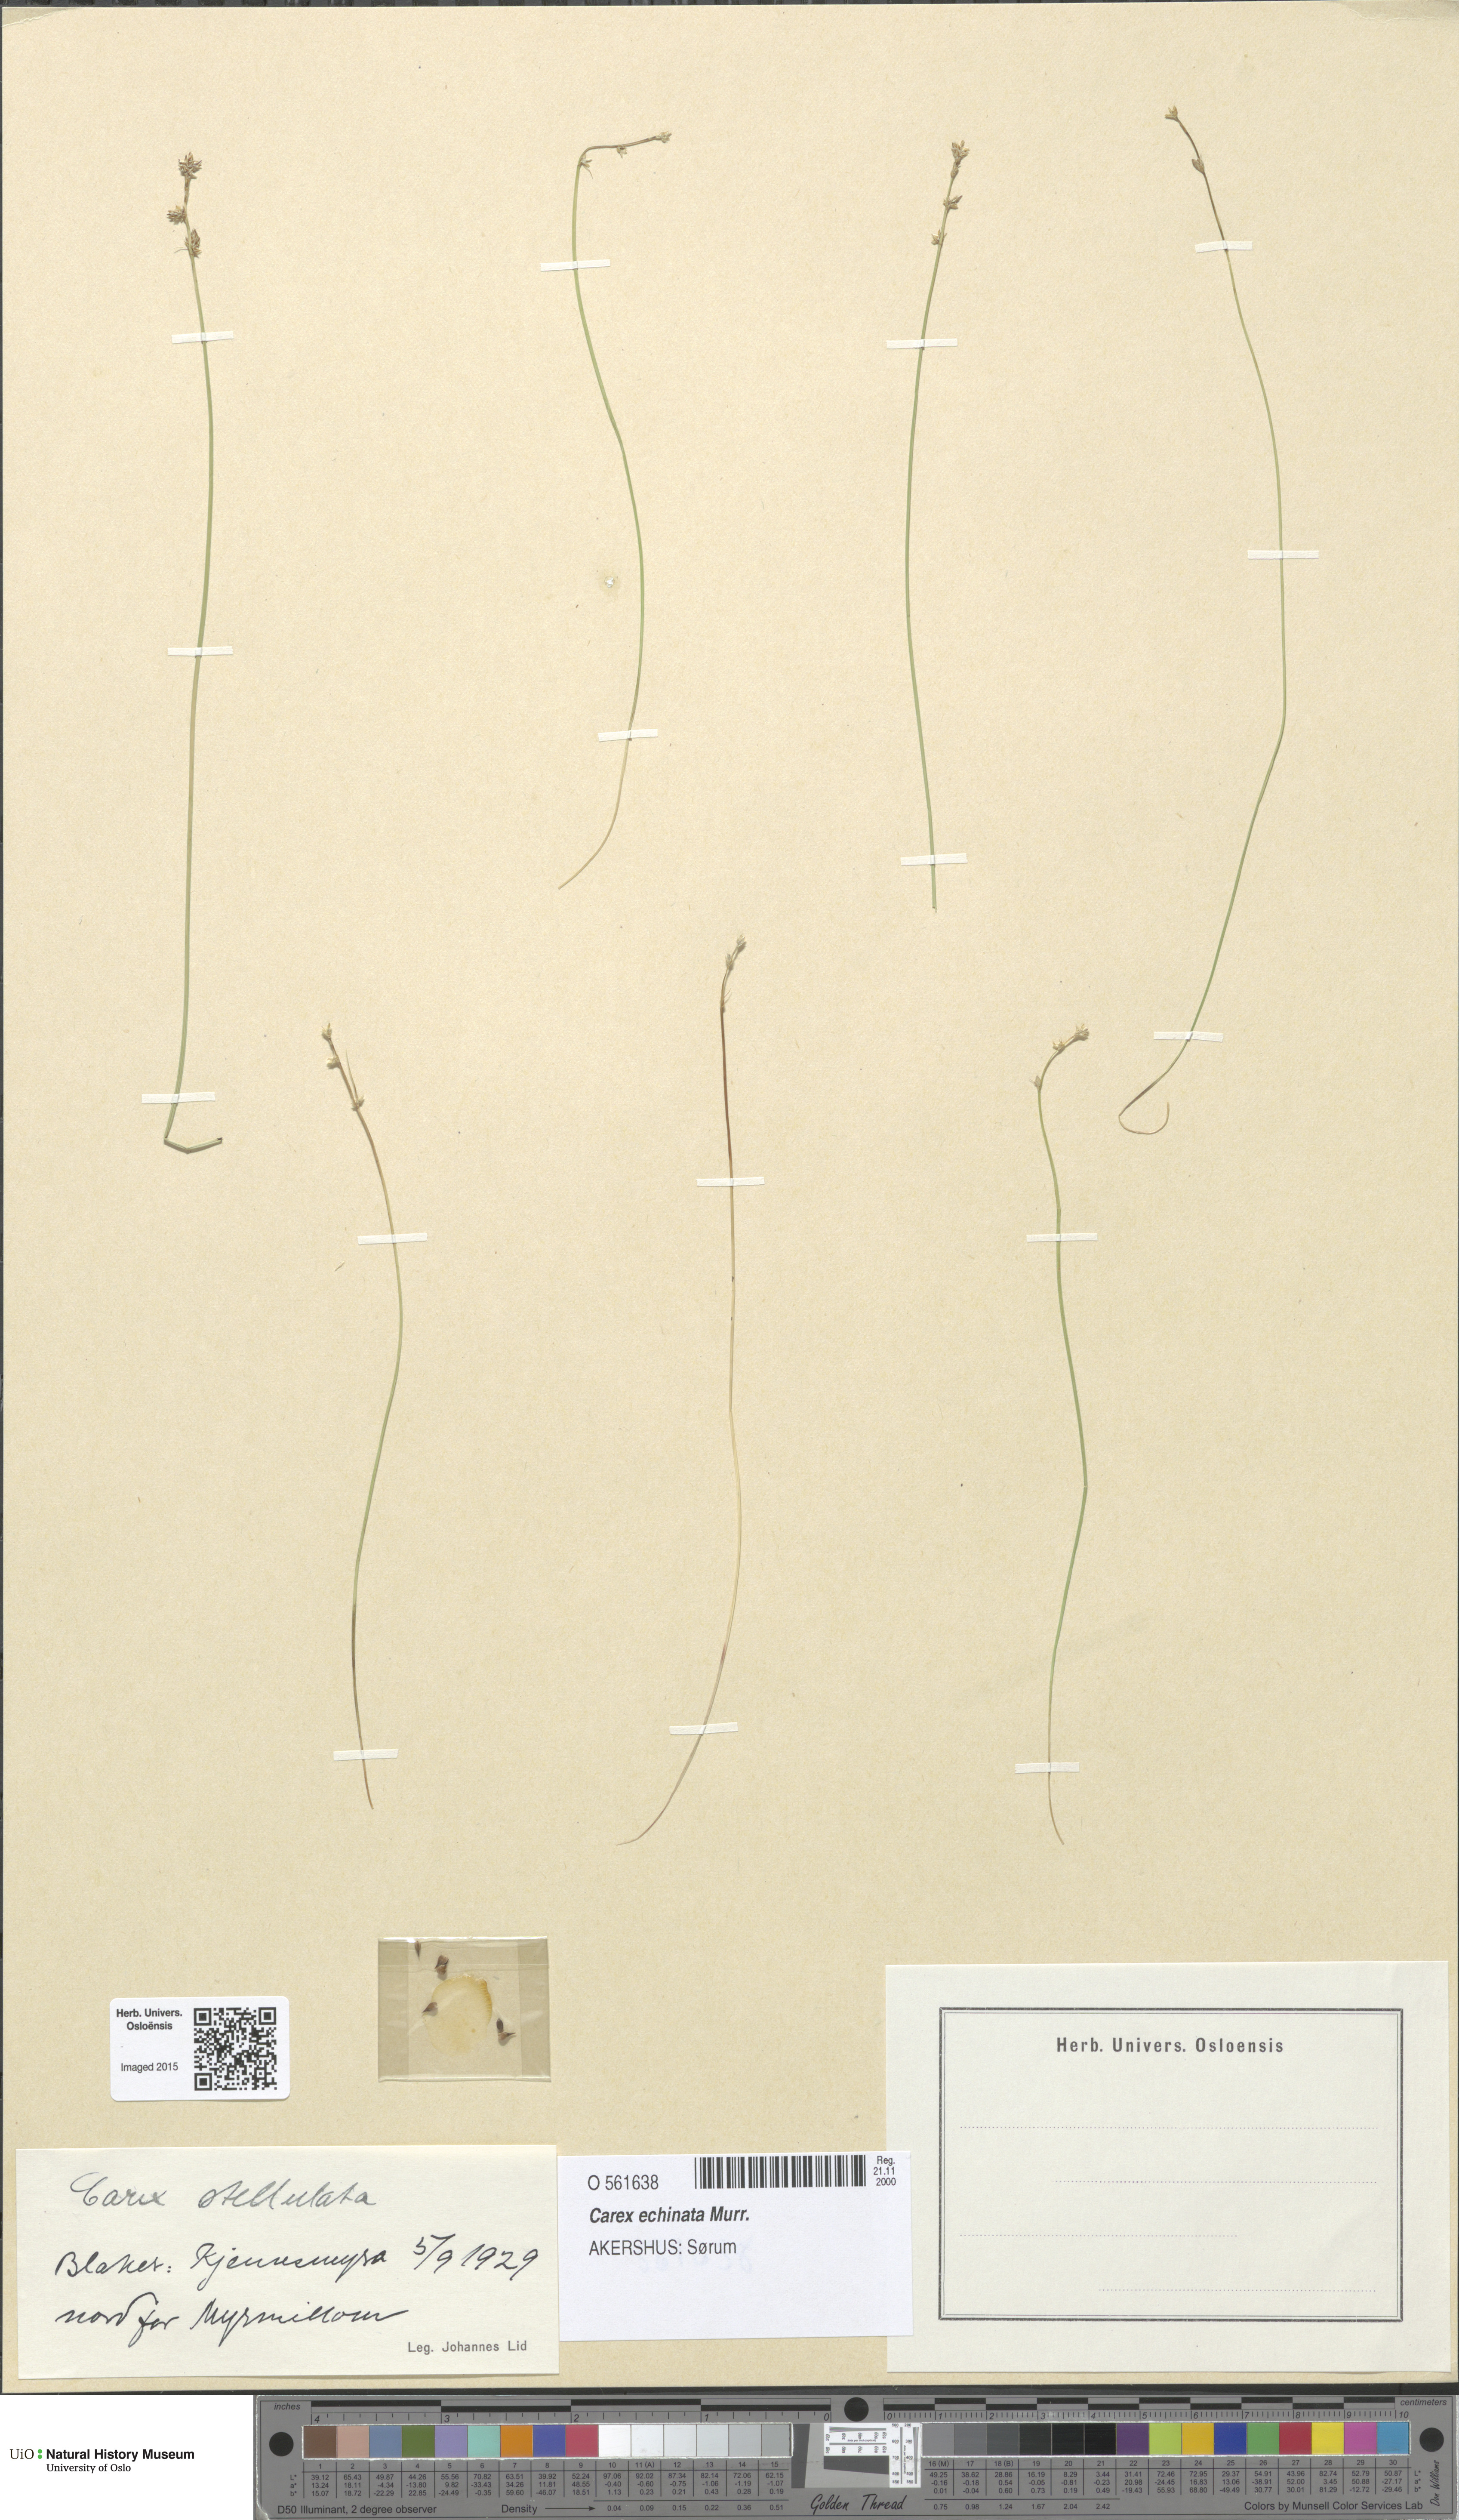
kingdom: Plantae
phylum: Tracheophyta
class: Liliopsida
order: Poales
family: Cyperaceae
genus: Carex
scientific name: Carex echinata
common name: Star sedge
